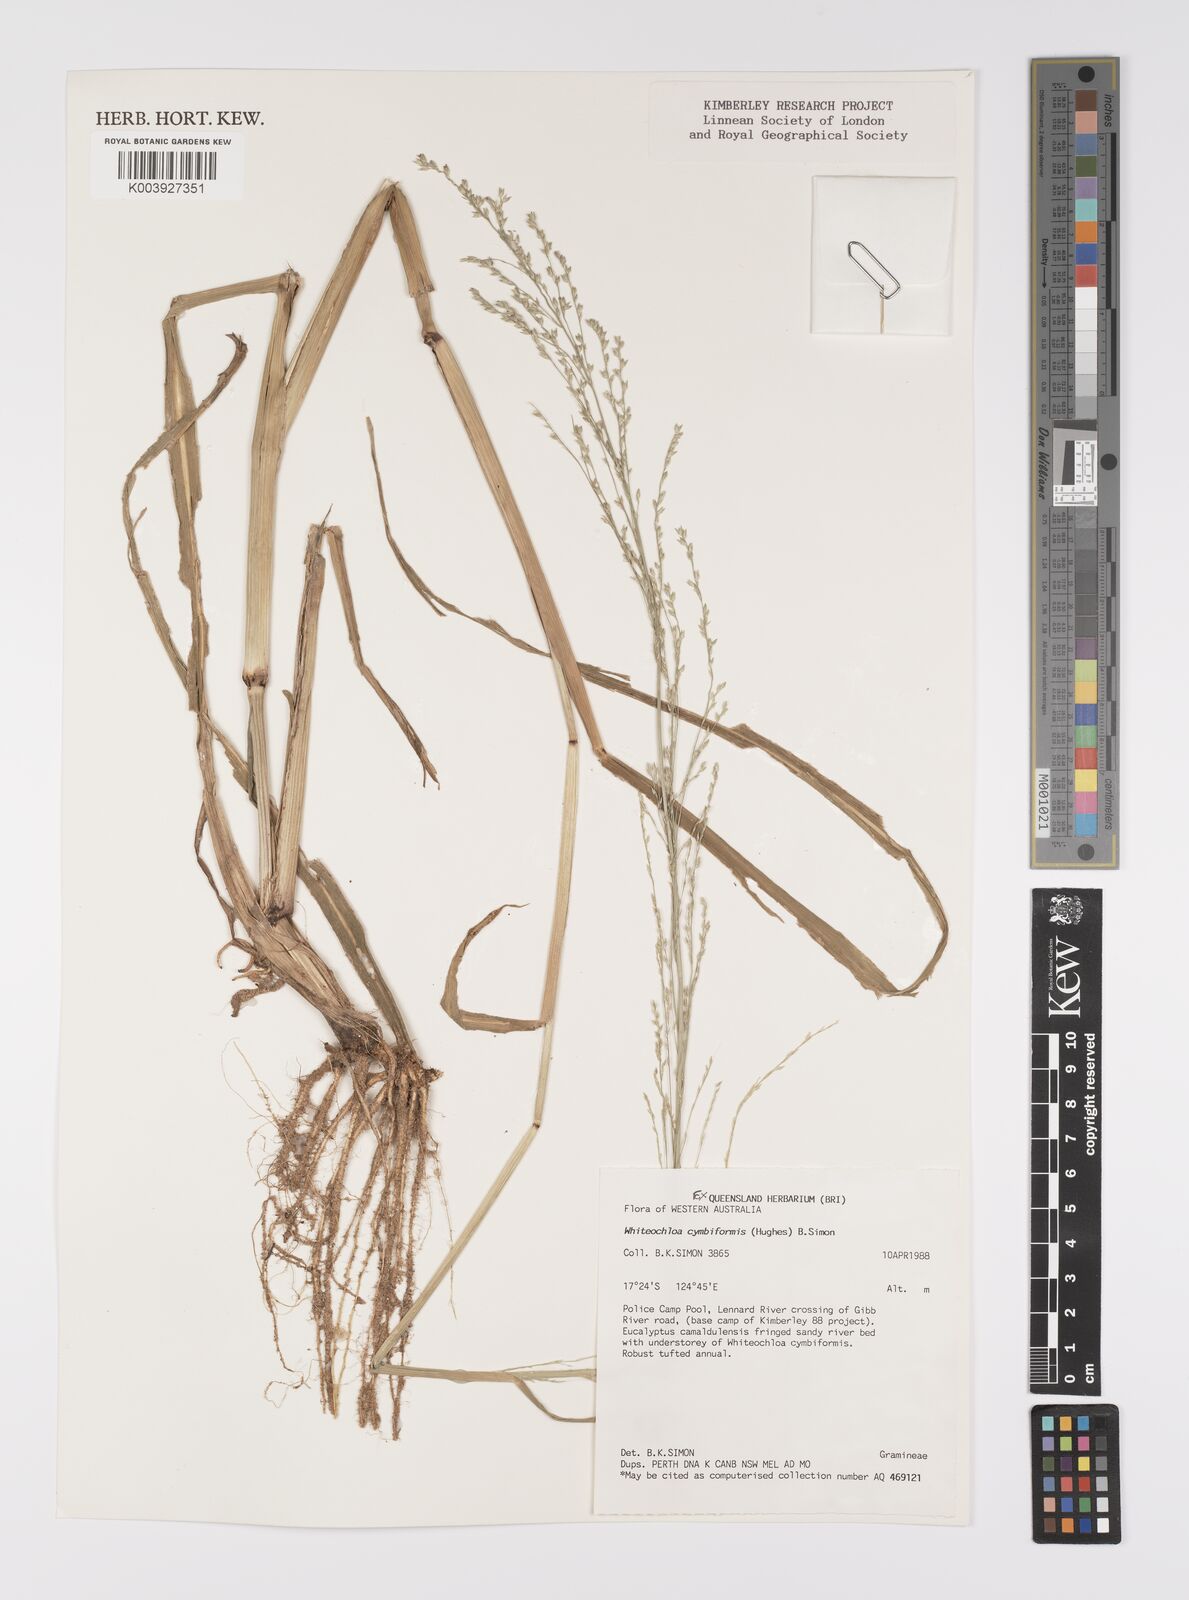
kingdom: Plantae
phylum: Tracheophyta
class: Liliopsida
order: Poales
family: Poaceae
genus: Whiteochloa
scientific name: Whiteochloa cymbiformis
